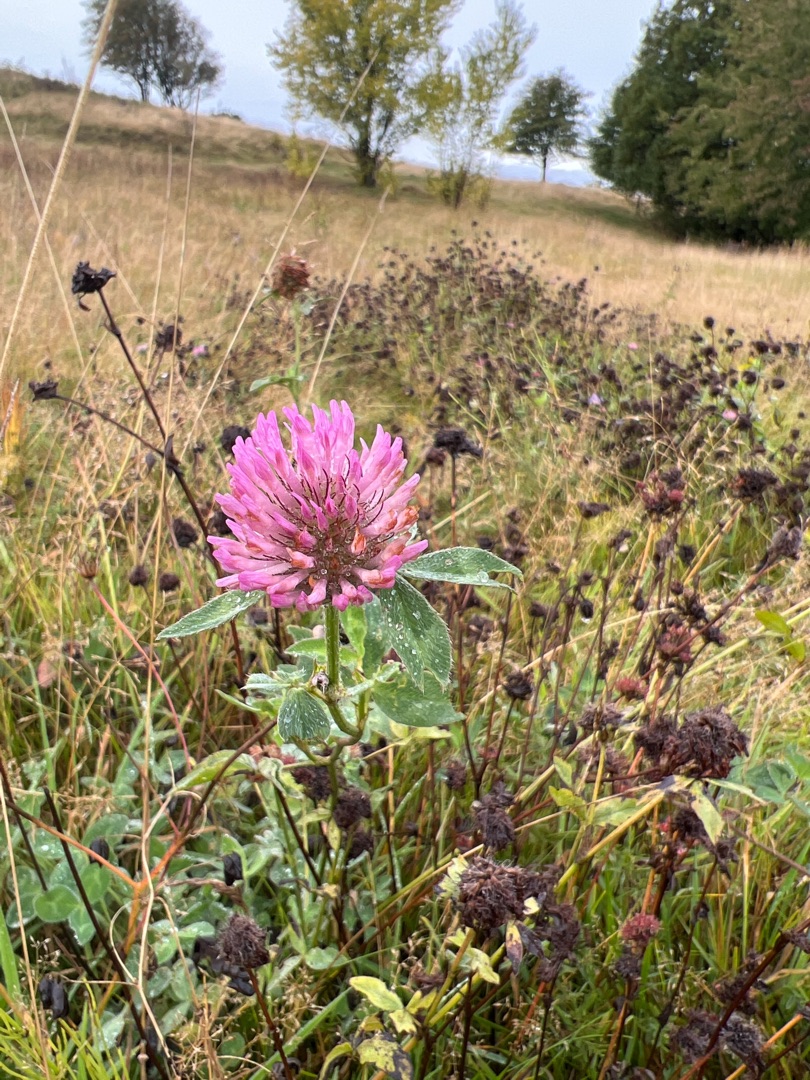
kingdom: Plantae
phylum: Tracheophyta
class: Magnoliopsida
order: Fabales
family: Fabaceae
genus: Trifolium
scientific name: Trifolium pratense
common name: Rød-kløver
